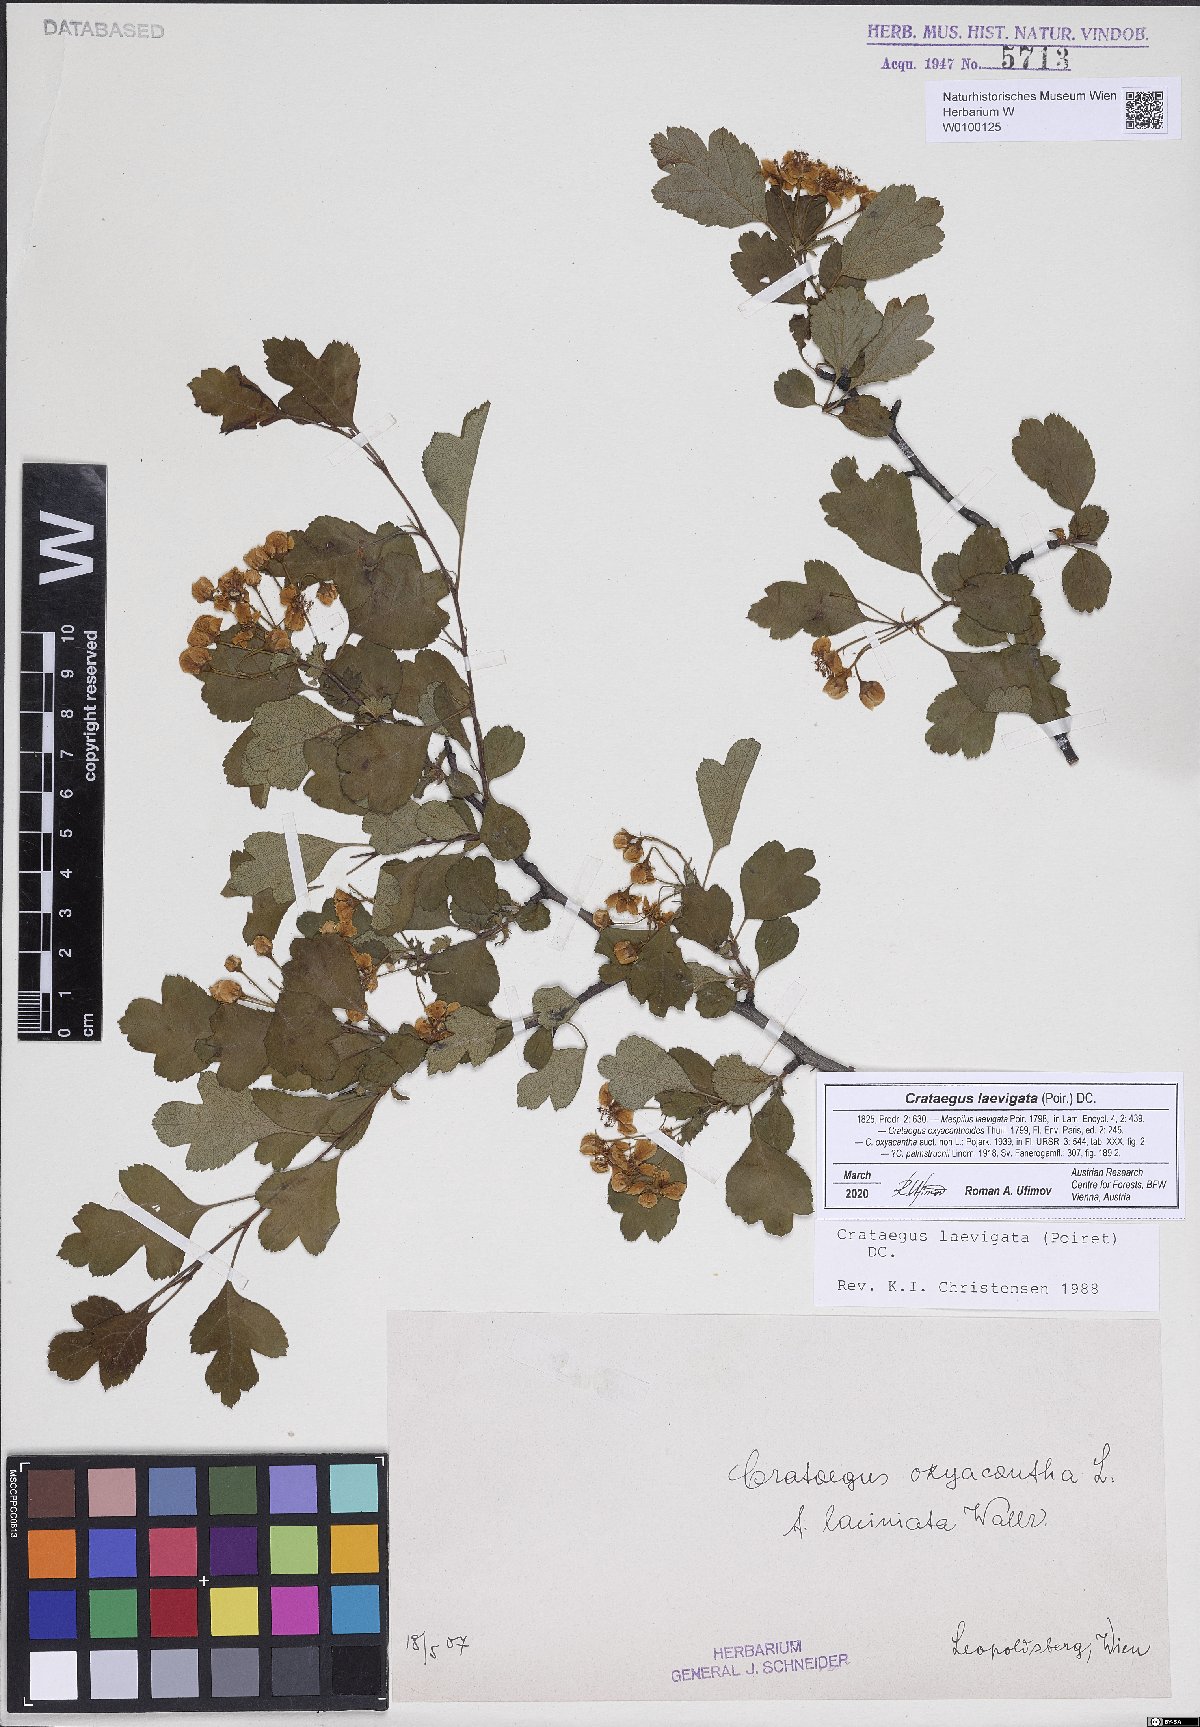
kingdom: Plantae
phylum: Tracheophyta
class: Magnoliopsida
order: Rosales
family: Rosaceae
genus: Crataegus
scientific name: Crataegus laevigata
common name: Midland hawthorn
